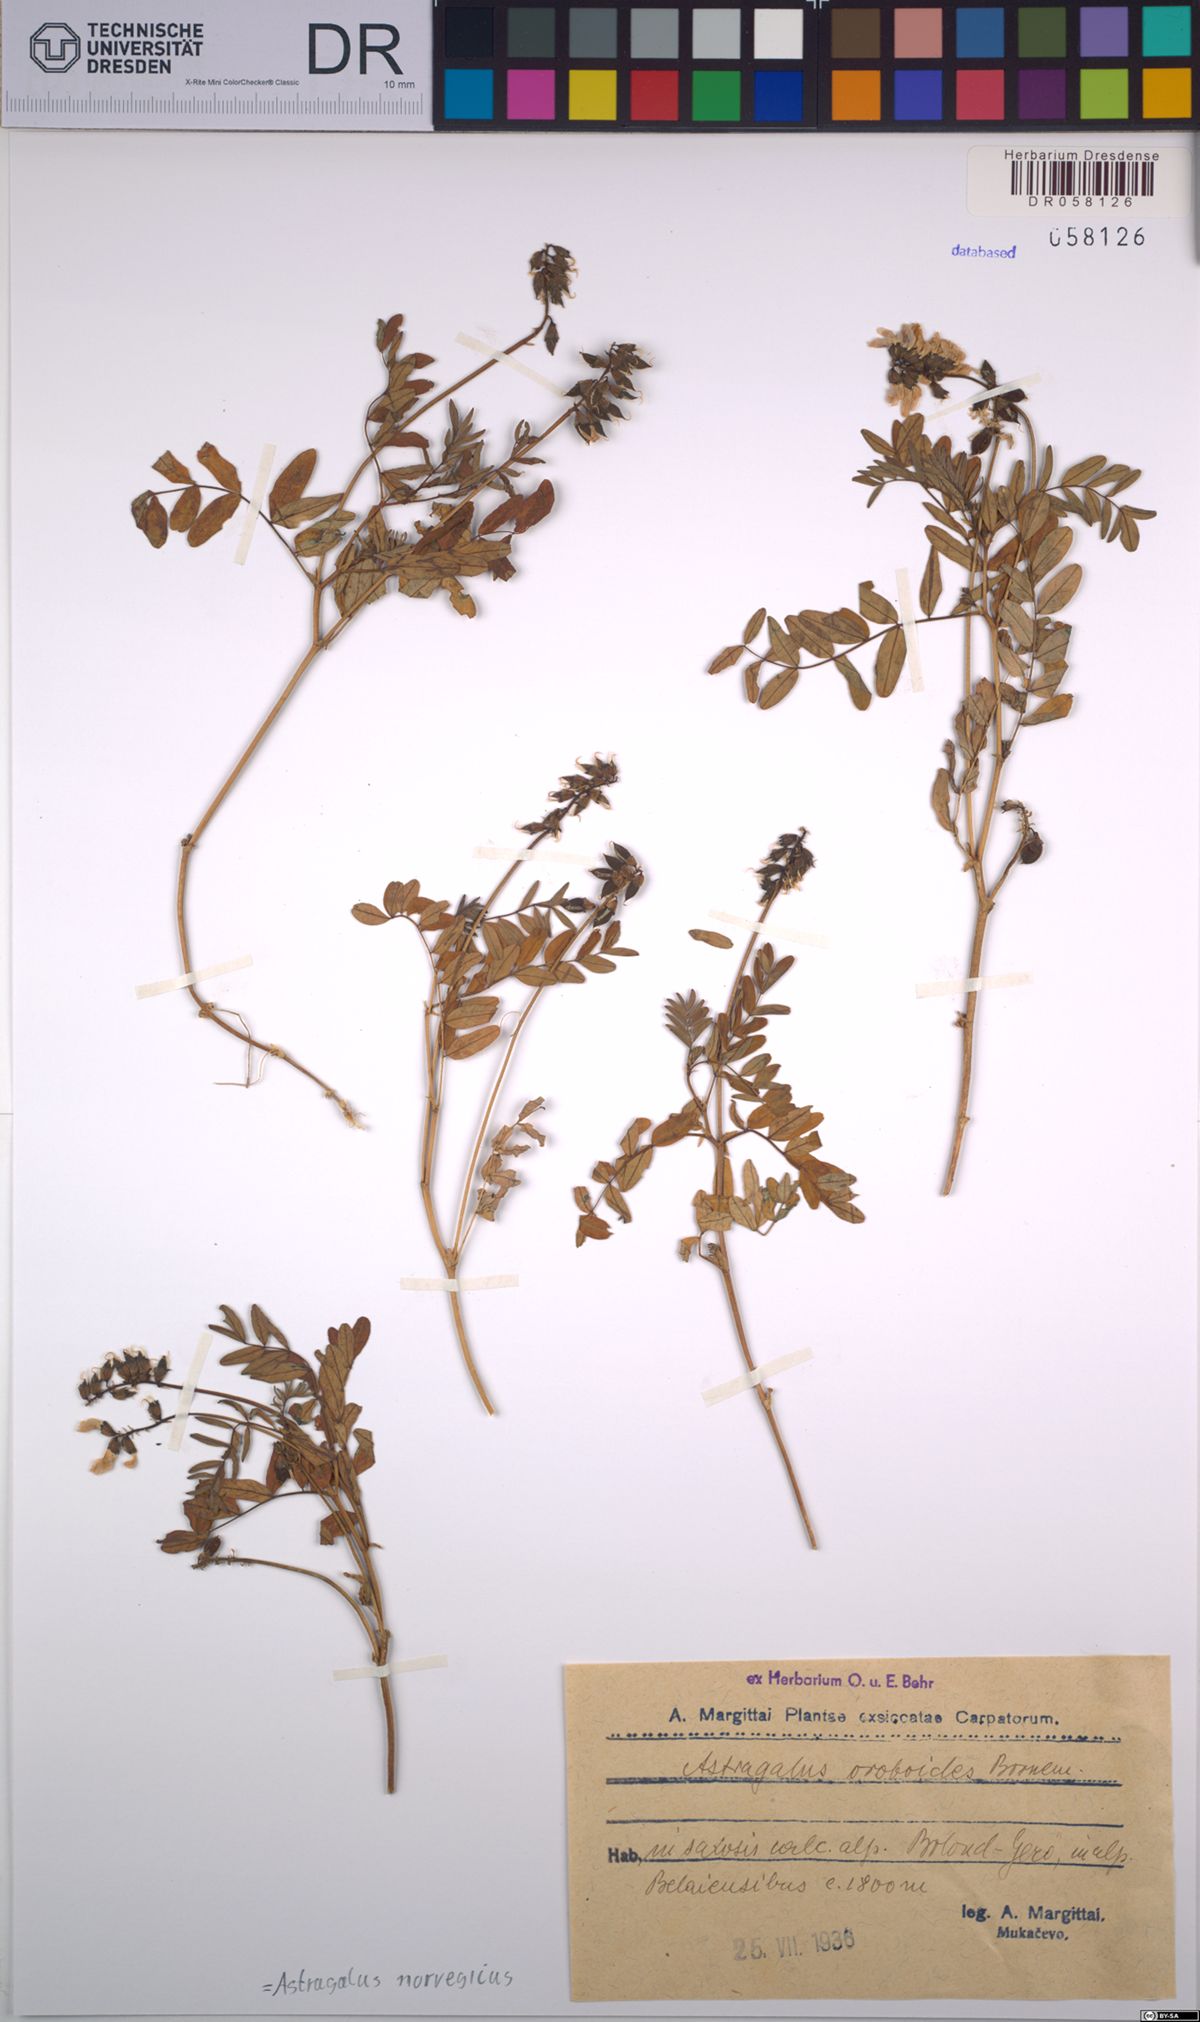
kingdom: Plantae
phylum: Tracheophyta
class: Magnoliopsida
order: Fabales
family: Fabaceae
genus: Astragalus
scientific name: Astragalus norvegicus
